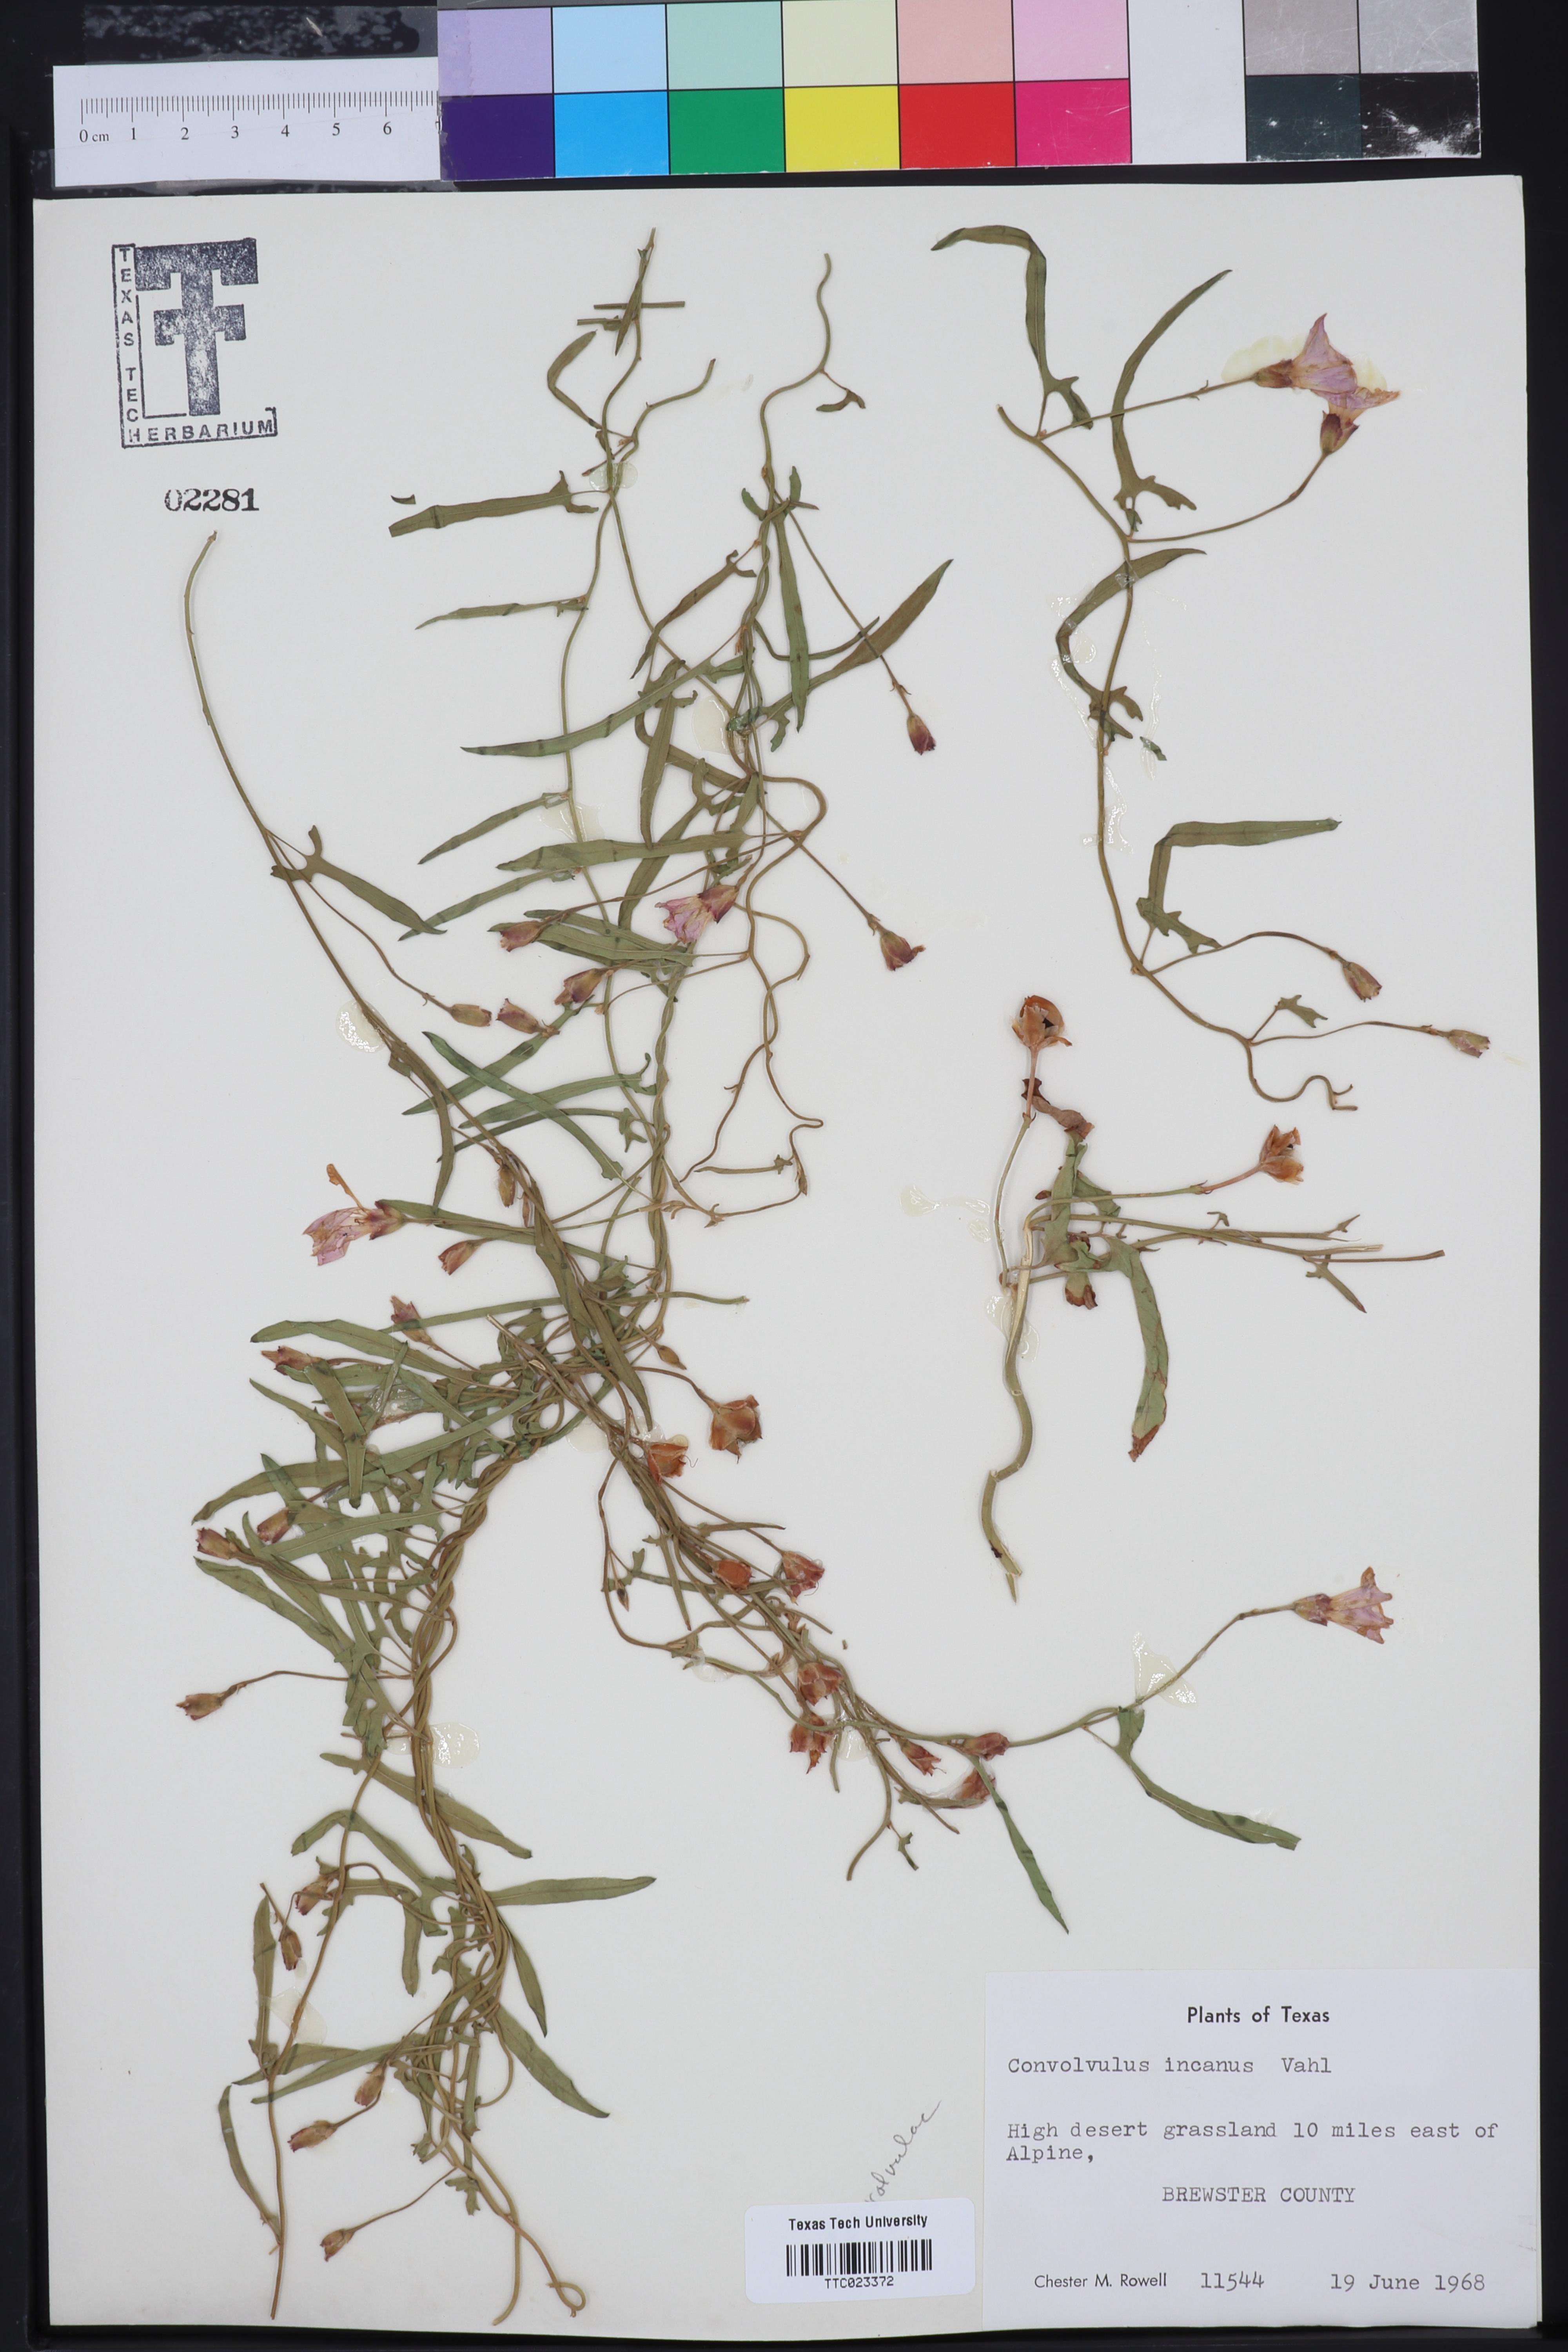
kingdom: Plantae
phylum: Tracheophyta
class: Magnoliopsida
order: Solanales
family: Convolvulaceae
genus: Convolvulus
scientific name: Convolvulus hermanniae
